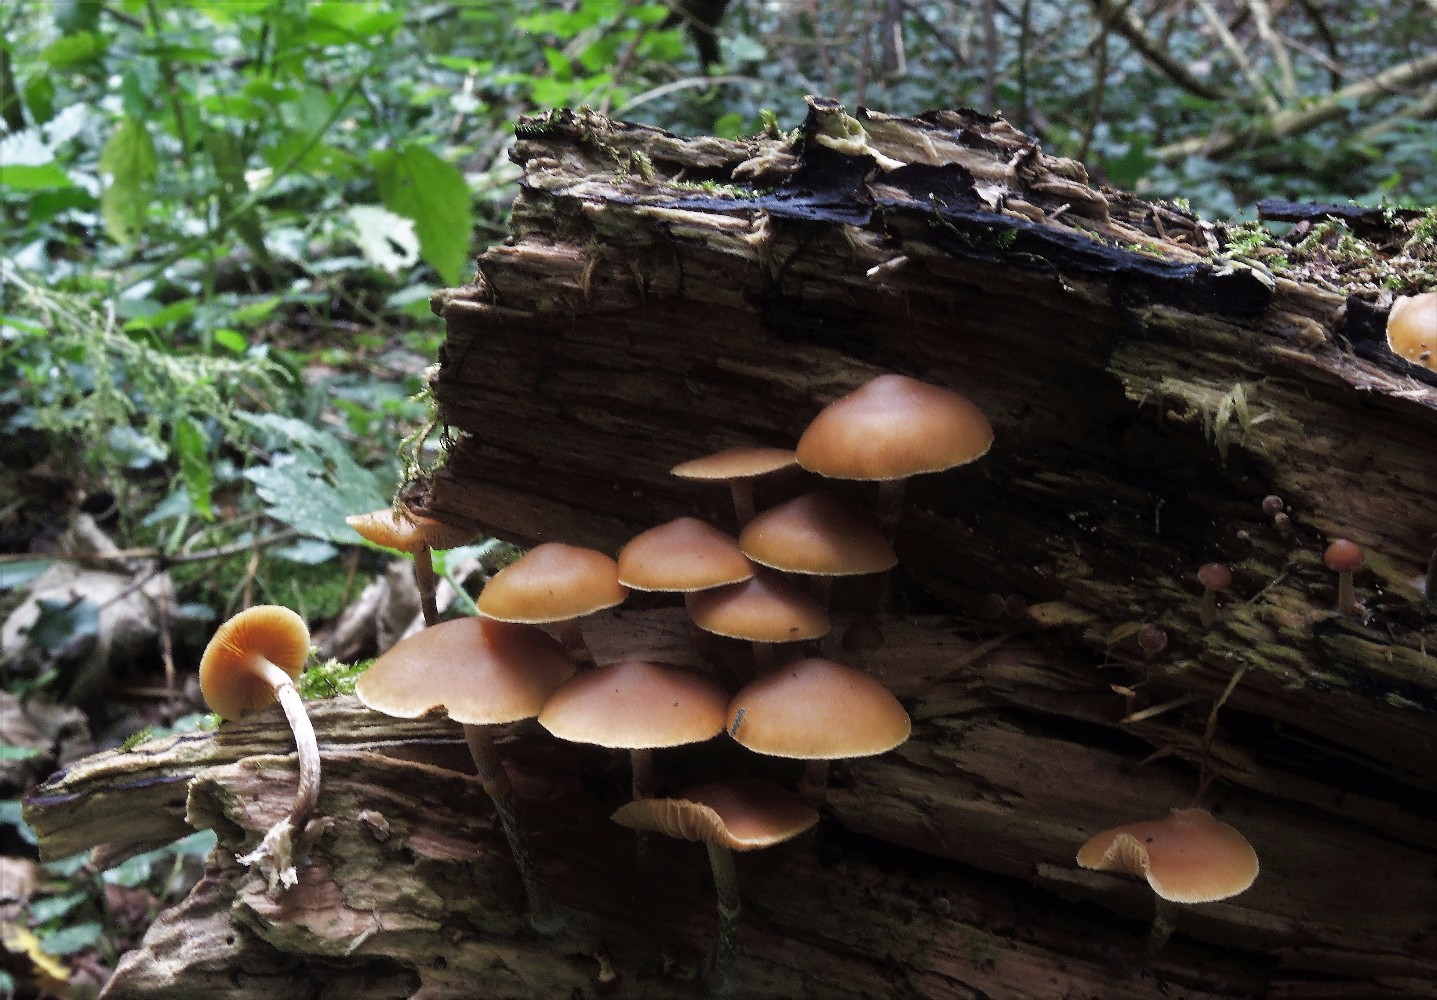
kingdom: Fungi
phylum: Basidiomycota
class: Agaricomycetes
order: Agaricales
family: Hymenogastraceae
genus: Galerina
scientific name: Galerina marginata
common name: randbæltet hjelmhat
